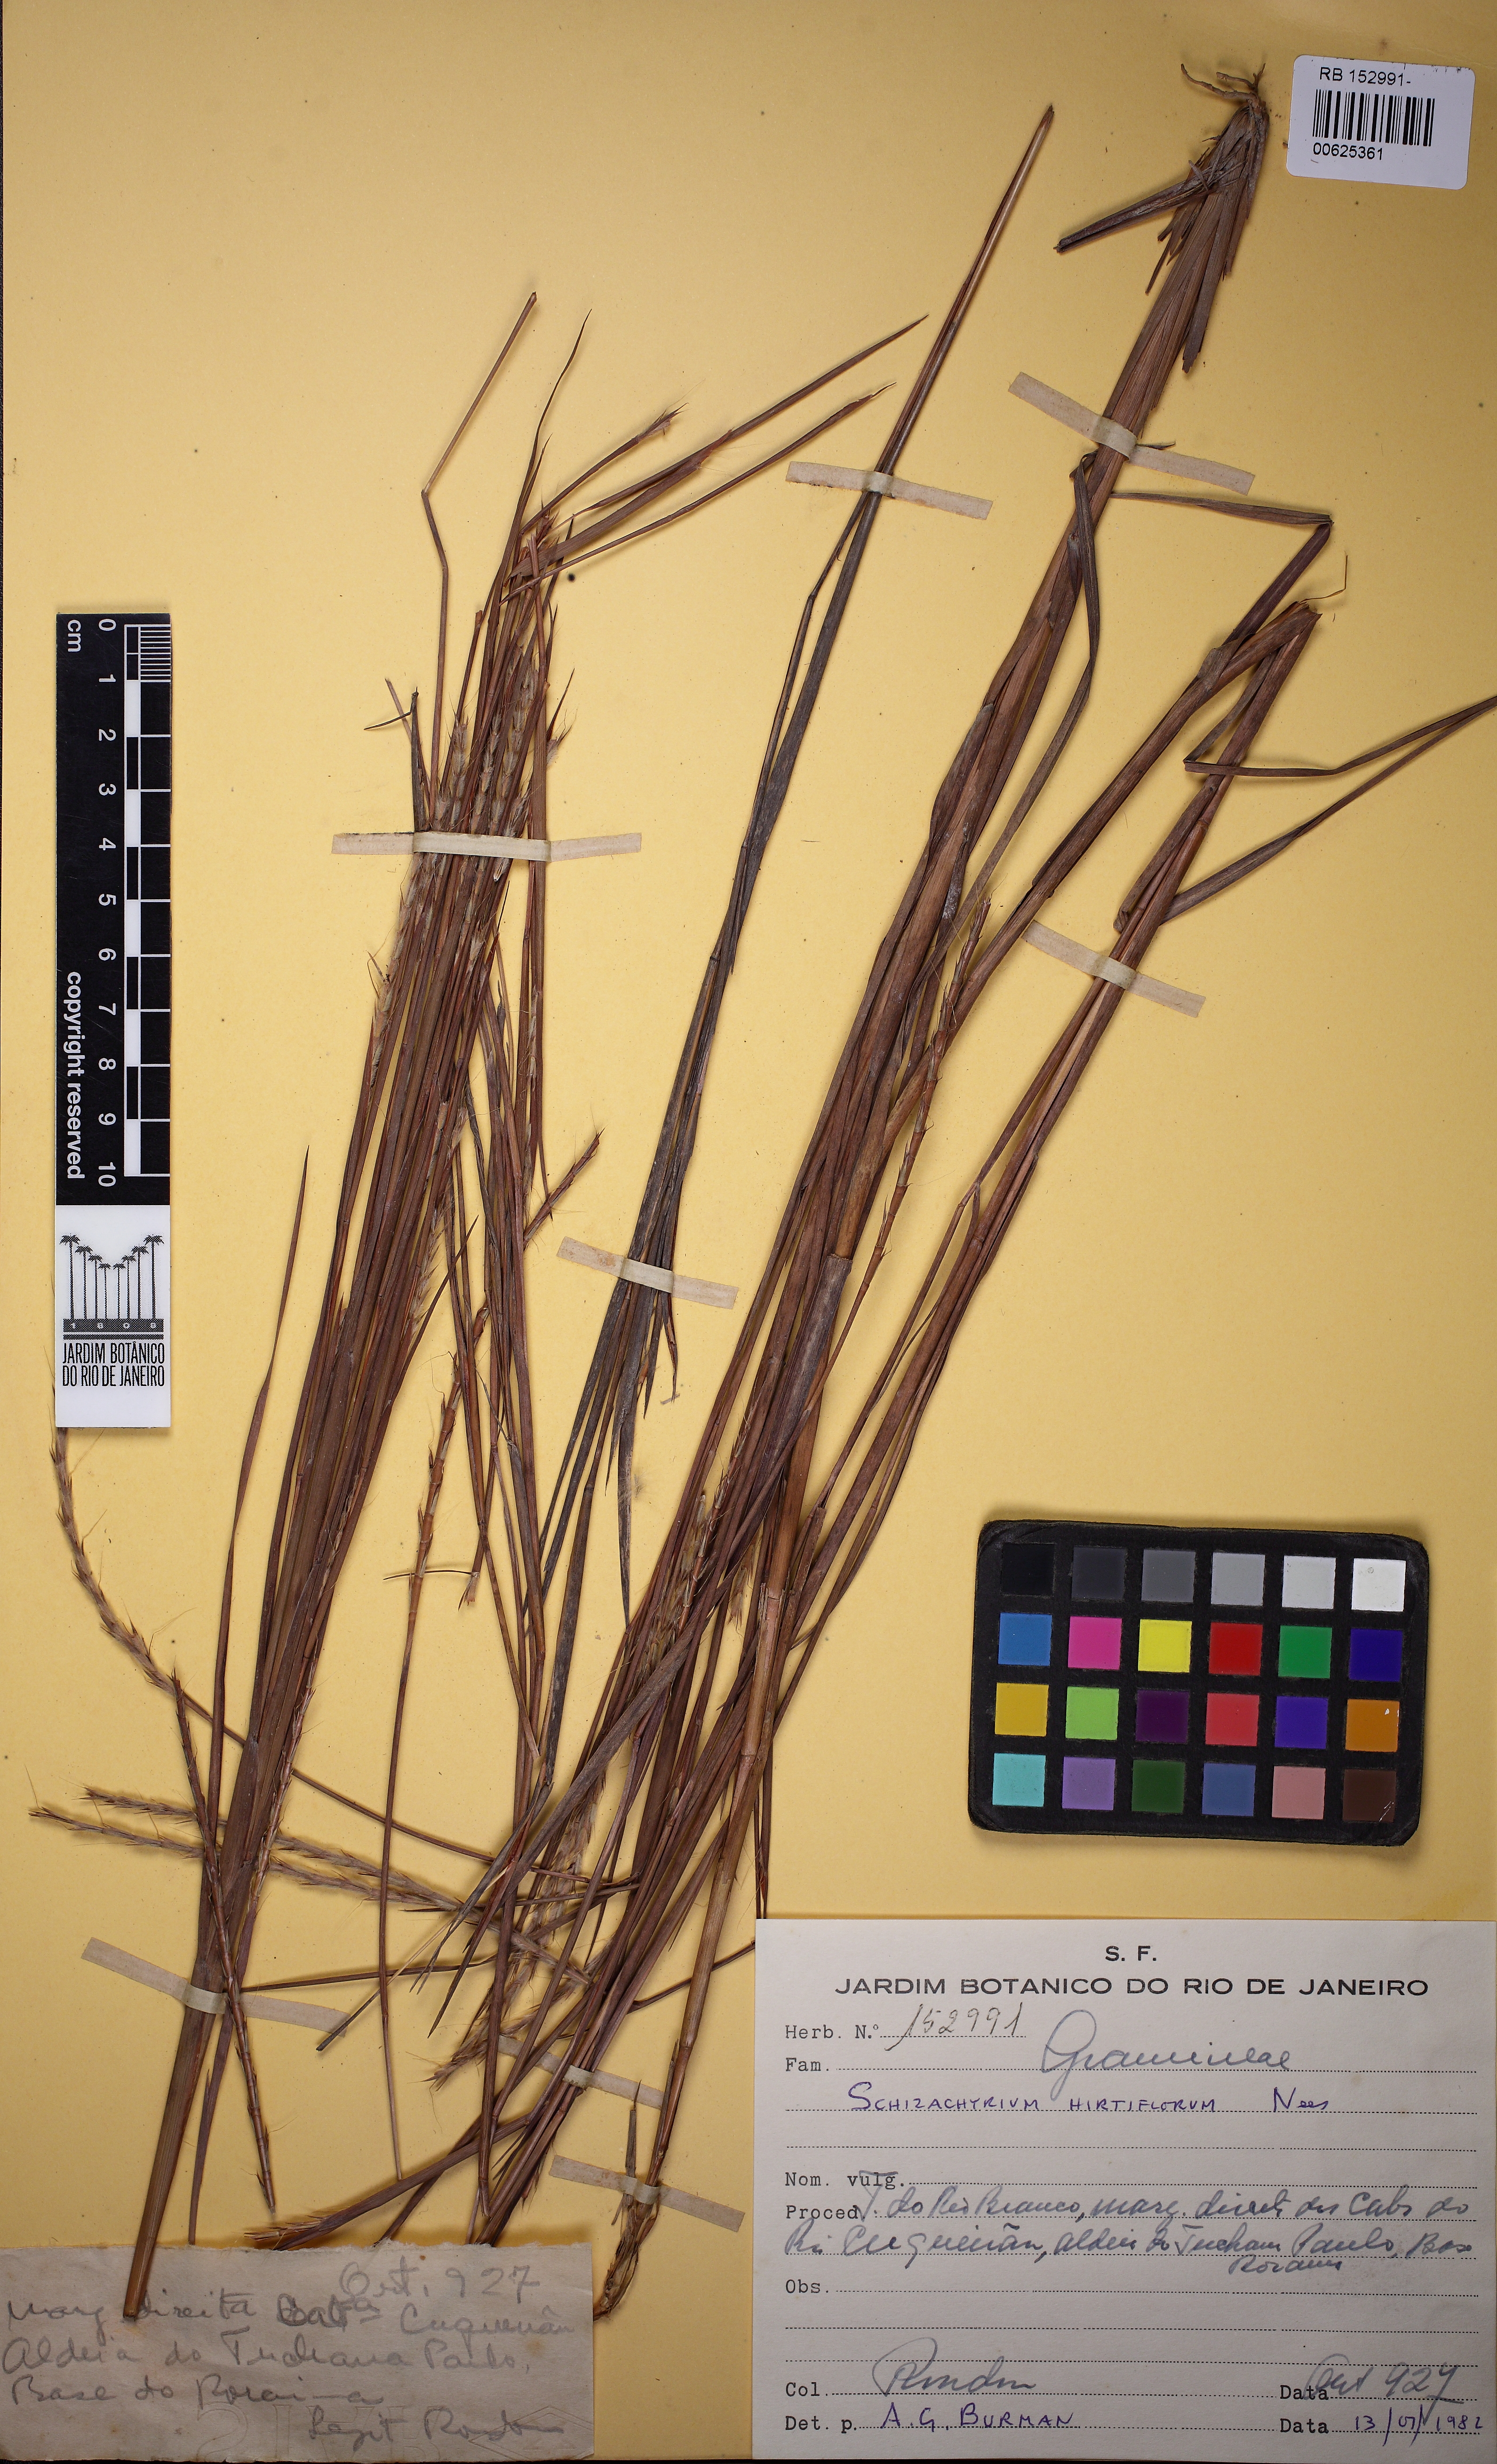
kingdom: Plantae
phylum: Tracheophyta
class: Liliopsida
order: Poales
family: Poaceae
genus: Schizachyrium
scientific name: Schizachyrium sanguineum
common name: Crimson bluestem
